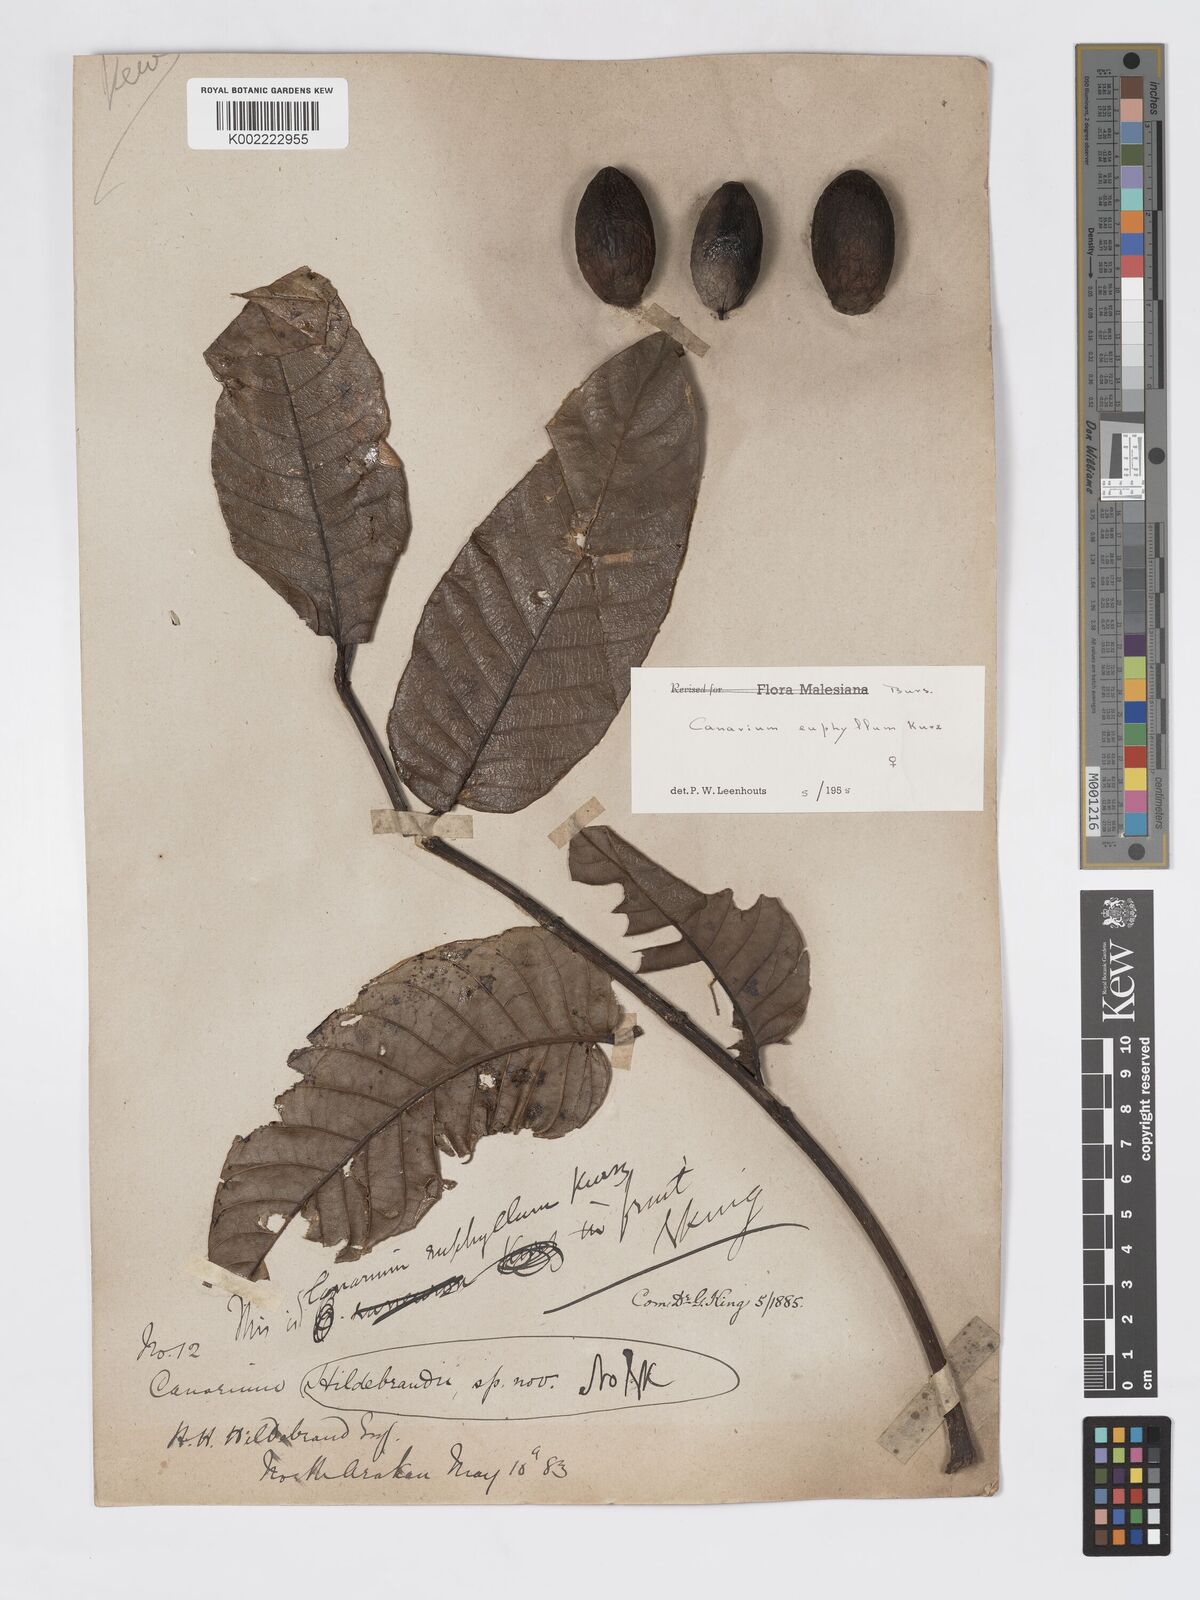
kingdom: Plantae
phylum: Tracheophyta
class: Magnoliopsida
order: Sapindales
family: Burseraceae
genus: Canarium
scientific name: Canarium euphyllum
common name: White dhup
